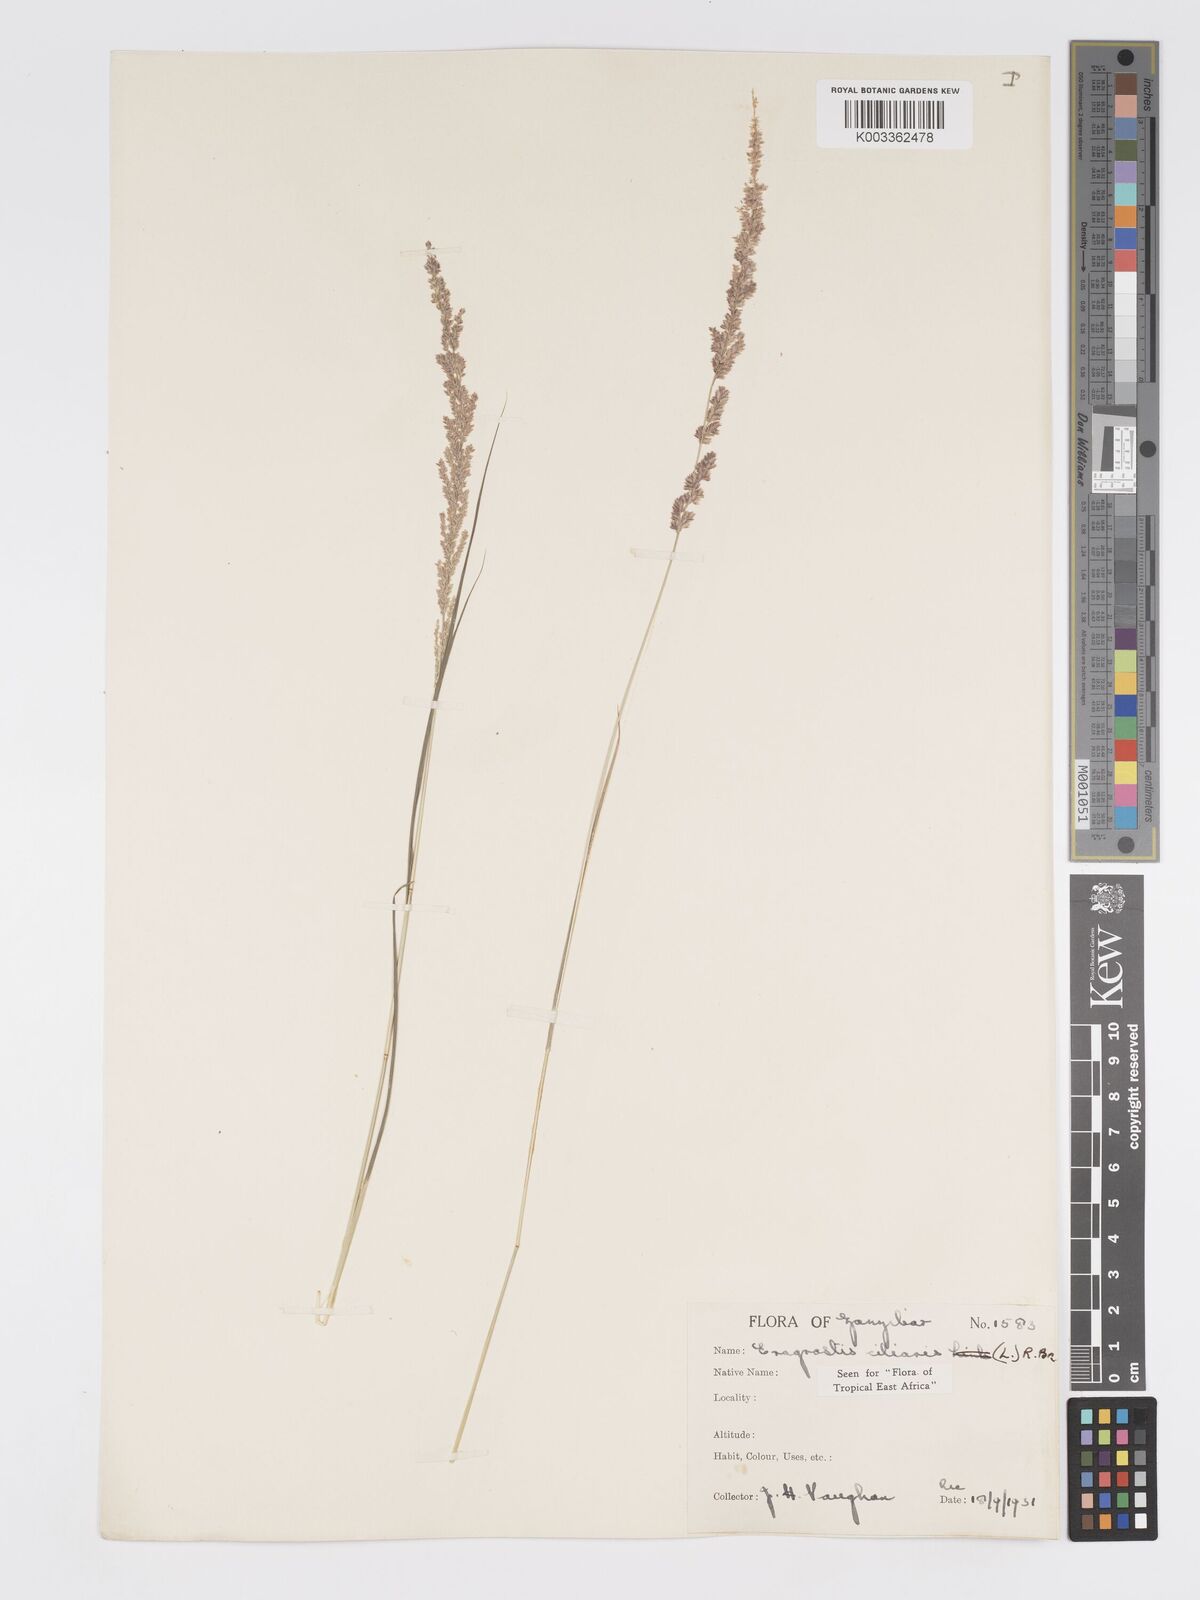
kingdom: Plantae
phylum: Tracheophyta
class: Liliopsida
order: Poales
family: Poaceae
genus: Eragrostis
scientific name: Eragrostis ciliaris
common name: Gophertail lovegrass
